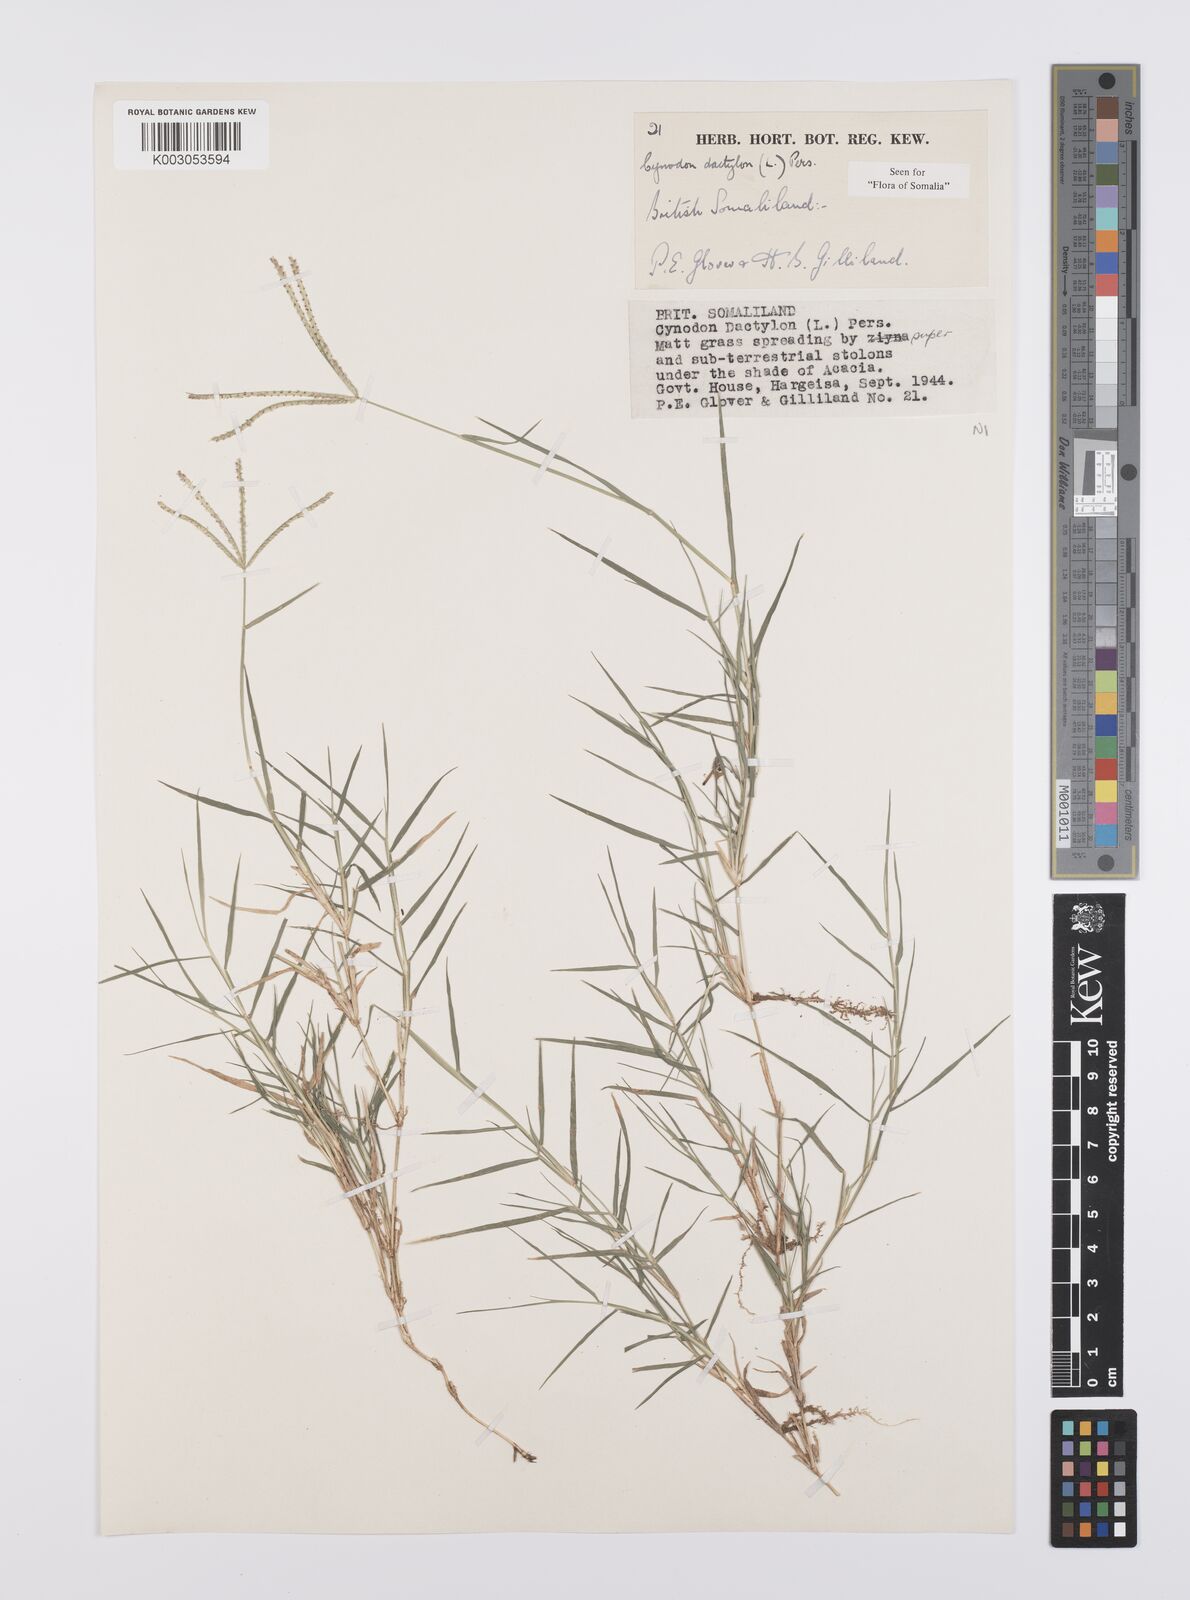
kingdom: Plantae
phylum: Tracheophyta
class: Liliopsida
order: Poales
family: Poaceae
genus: Cynodon
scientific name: Cynodon dactylon
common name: Bermuda grass
